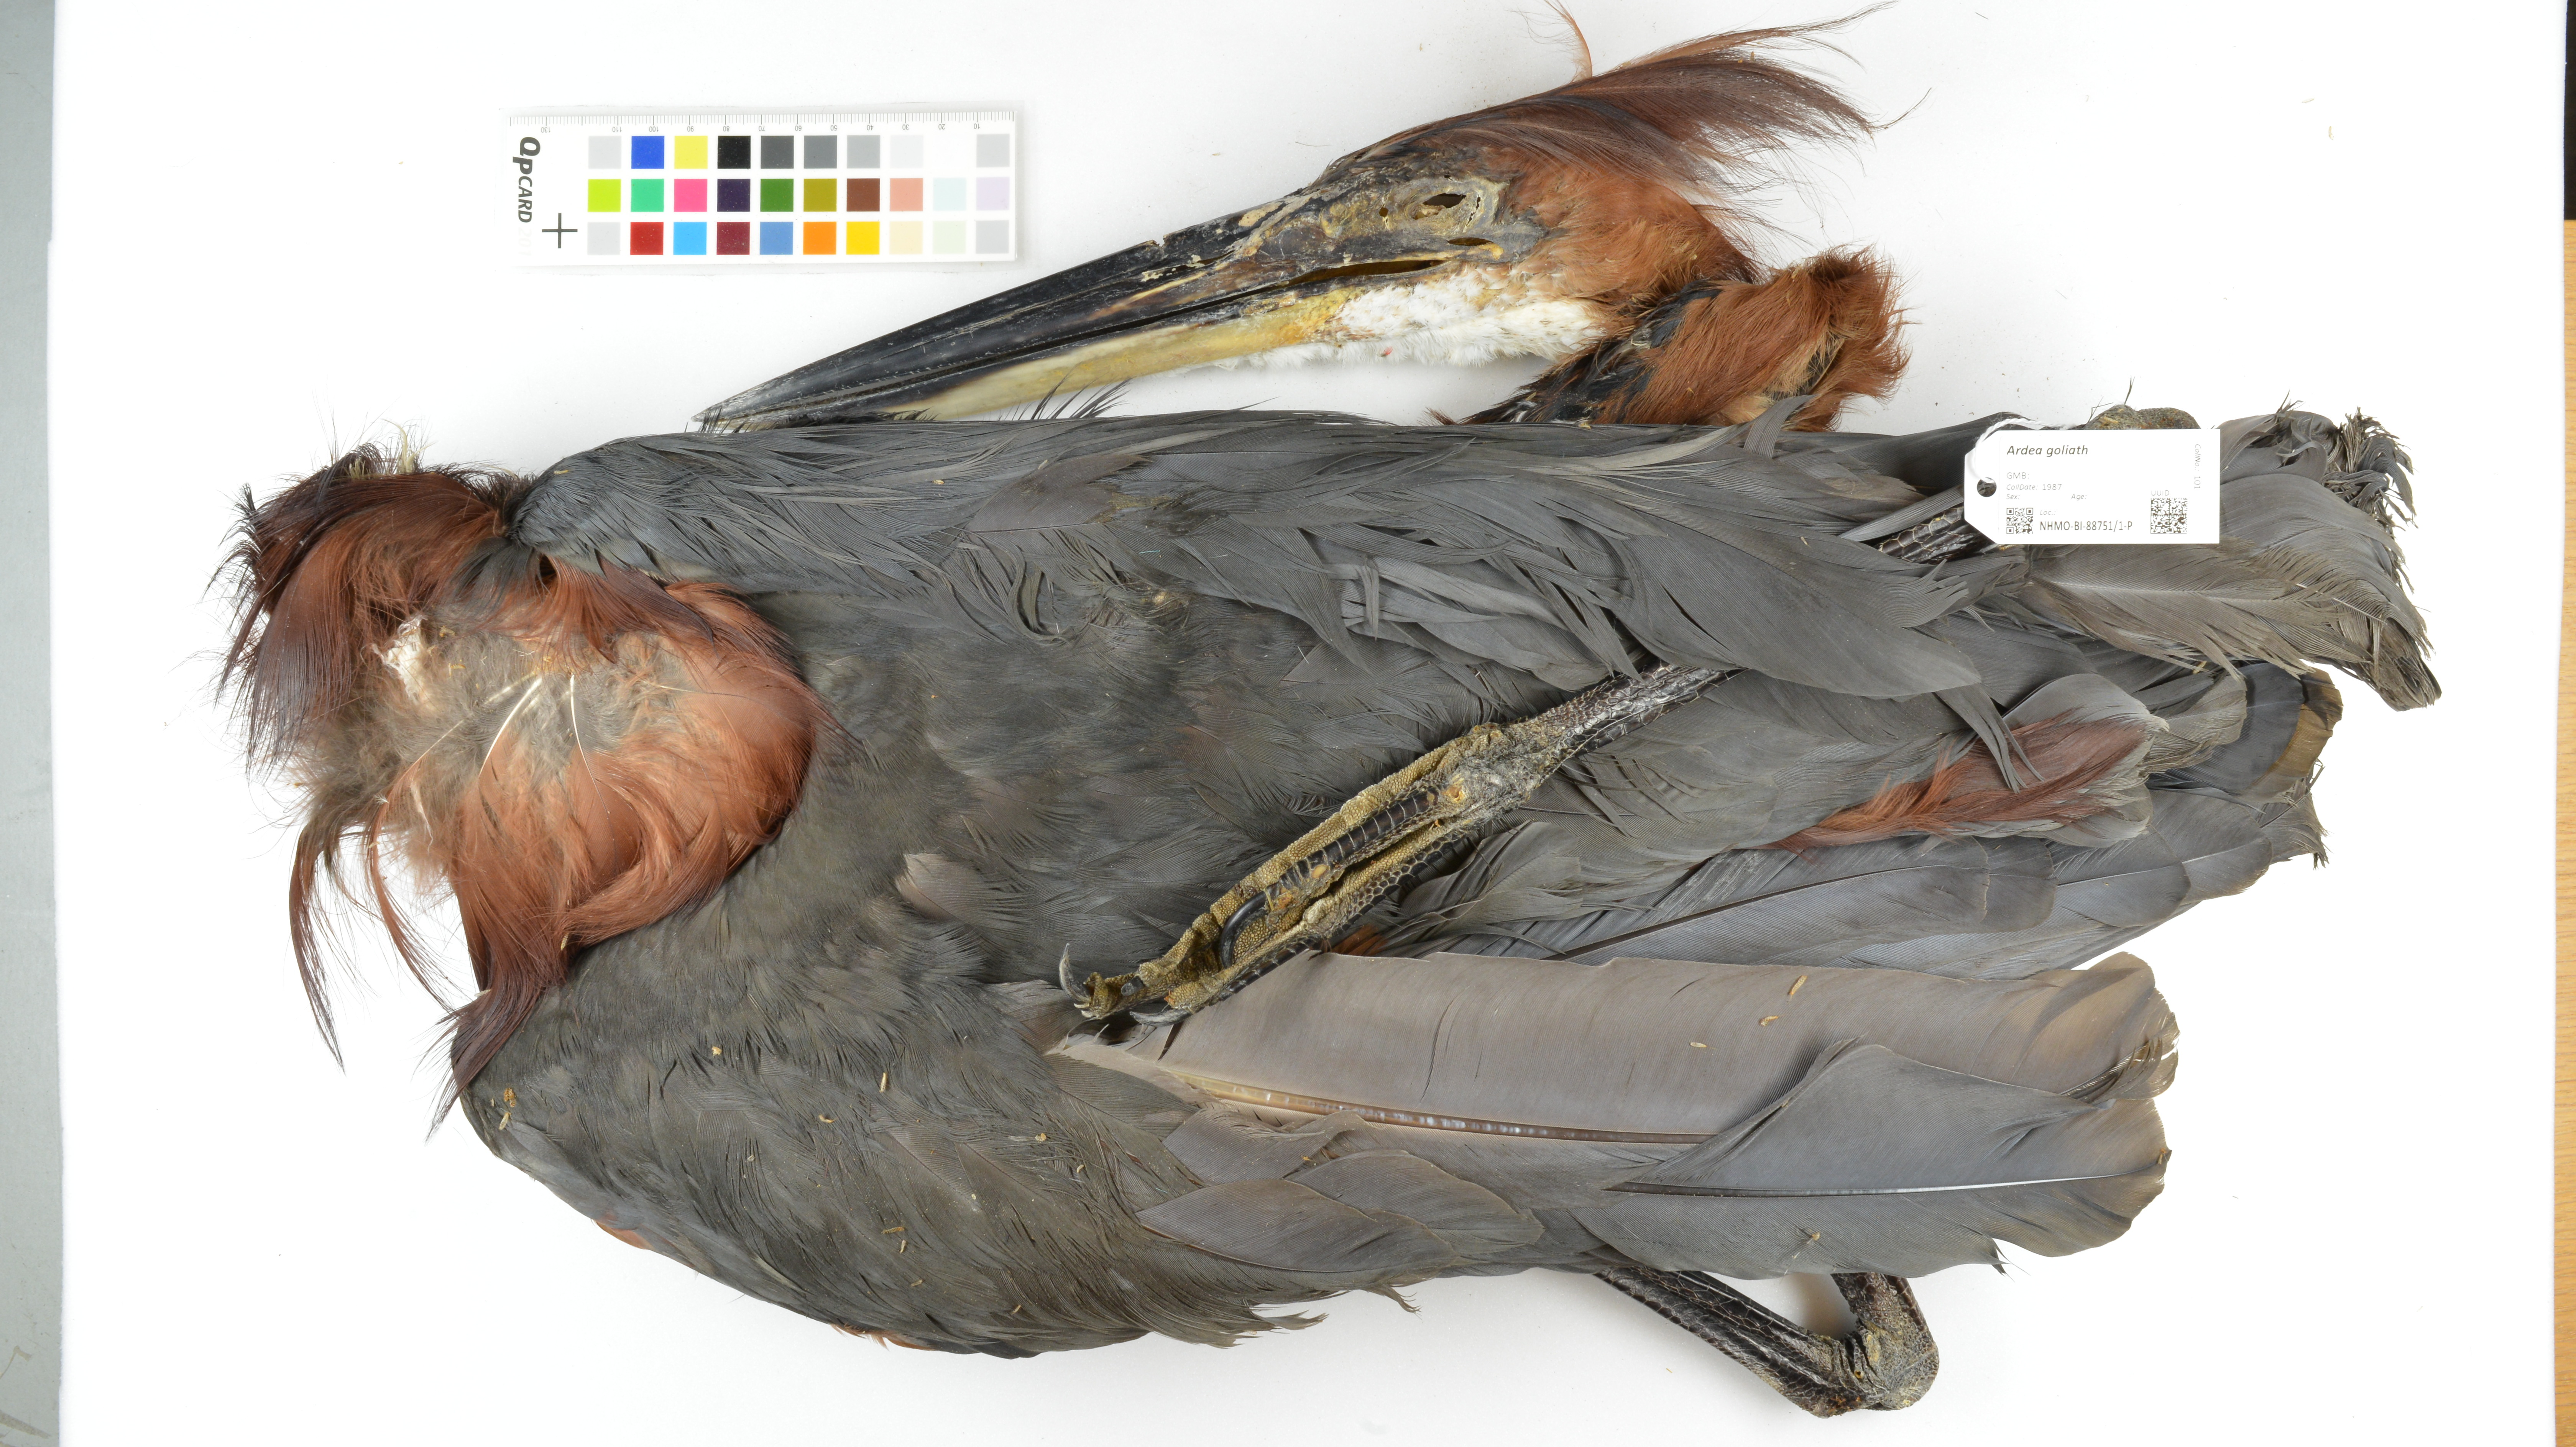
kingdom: Animalia
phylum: Chordata
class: Aves
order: Pelecaniformes
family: Ardeidae
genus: Ardea
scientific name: Ardea goliath
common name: Goliath heron
